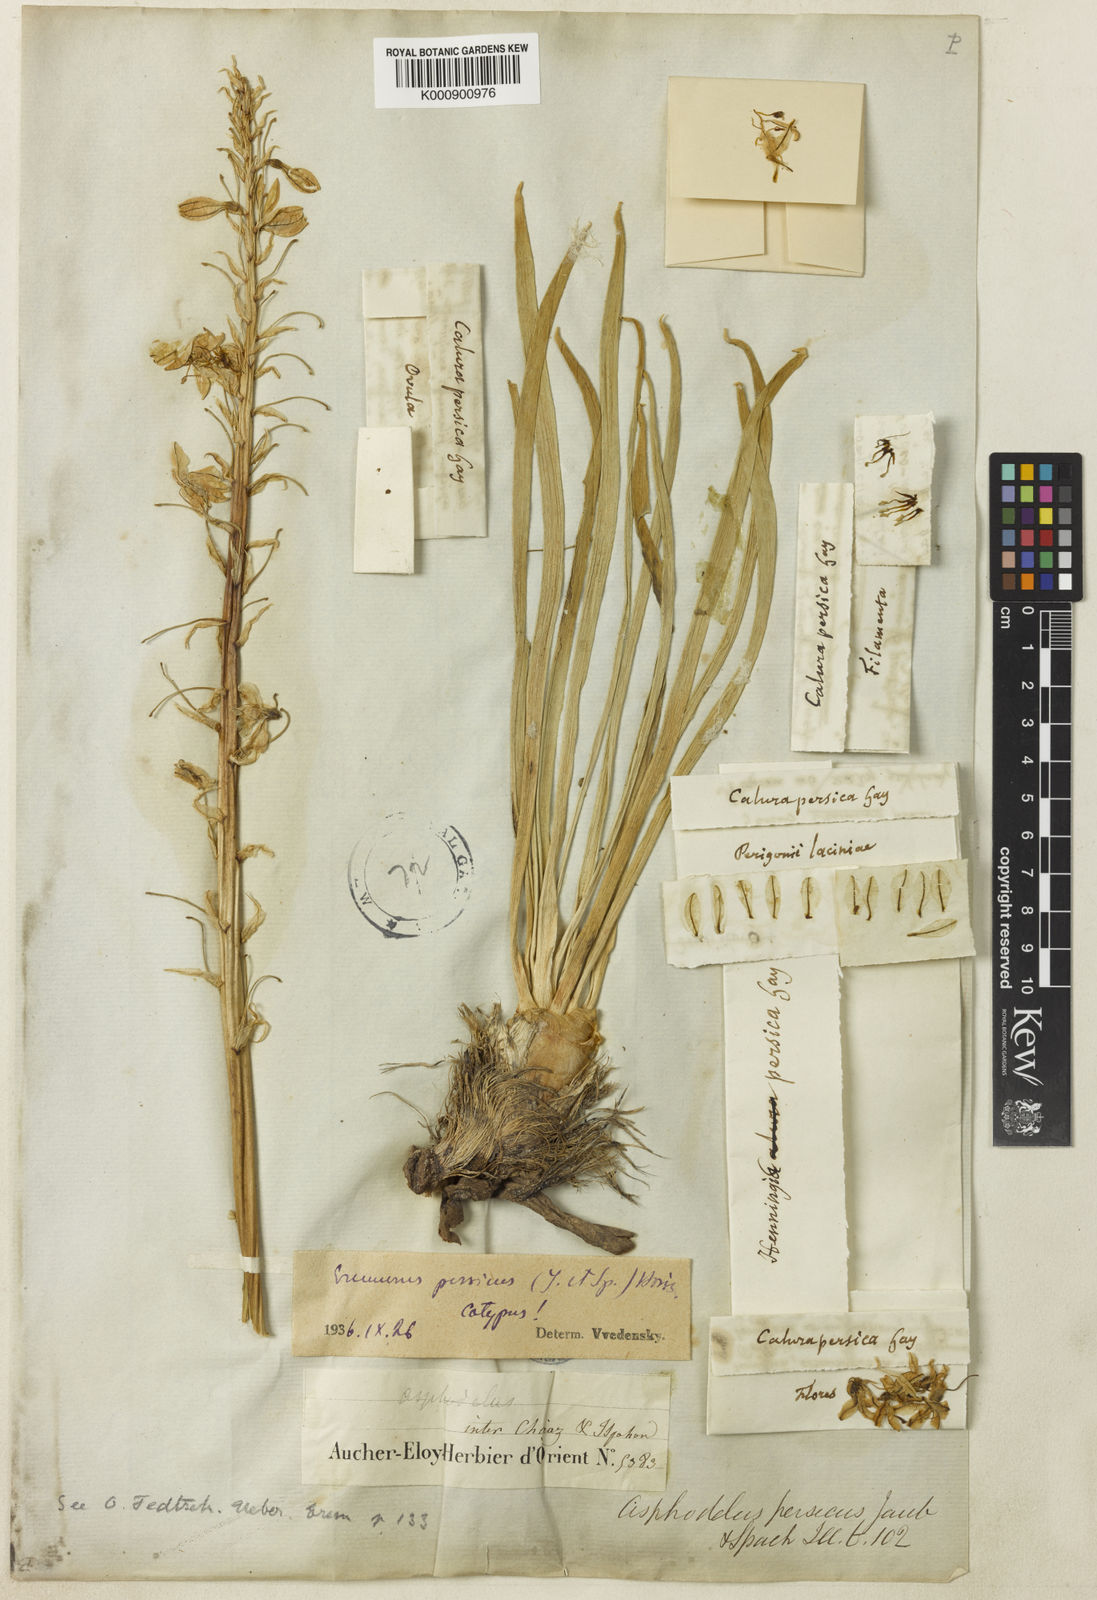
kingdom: Plantae
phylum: Tracheophyta
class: Liliopsida
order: Asparagales
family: Asphodelaceae
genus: Eremurus
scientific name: Eremurus persicus
